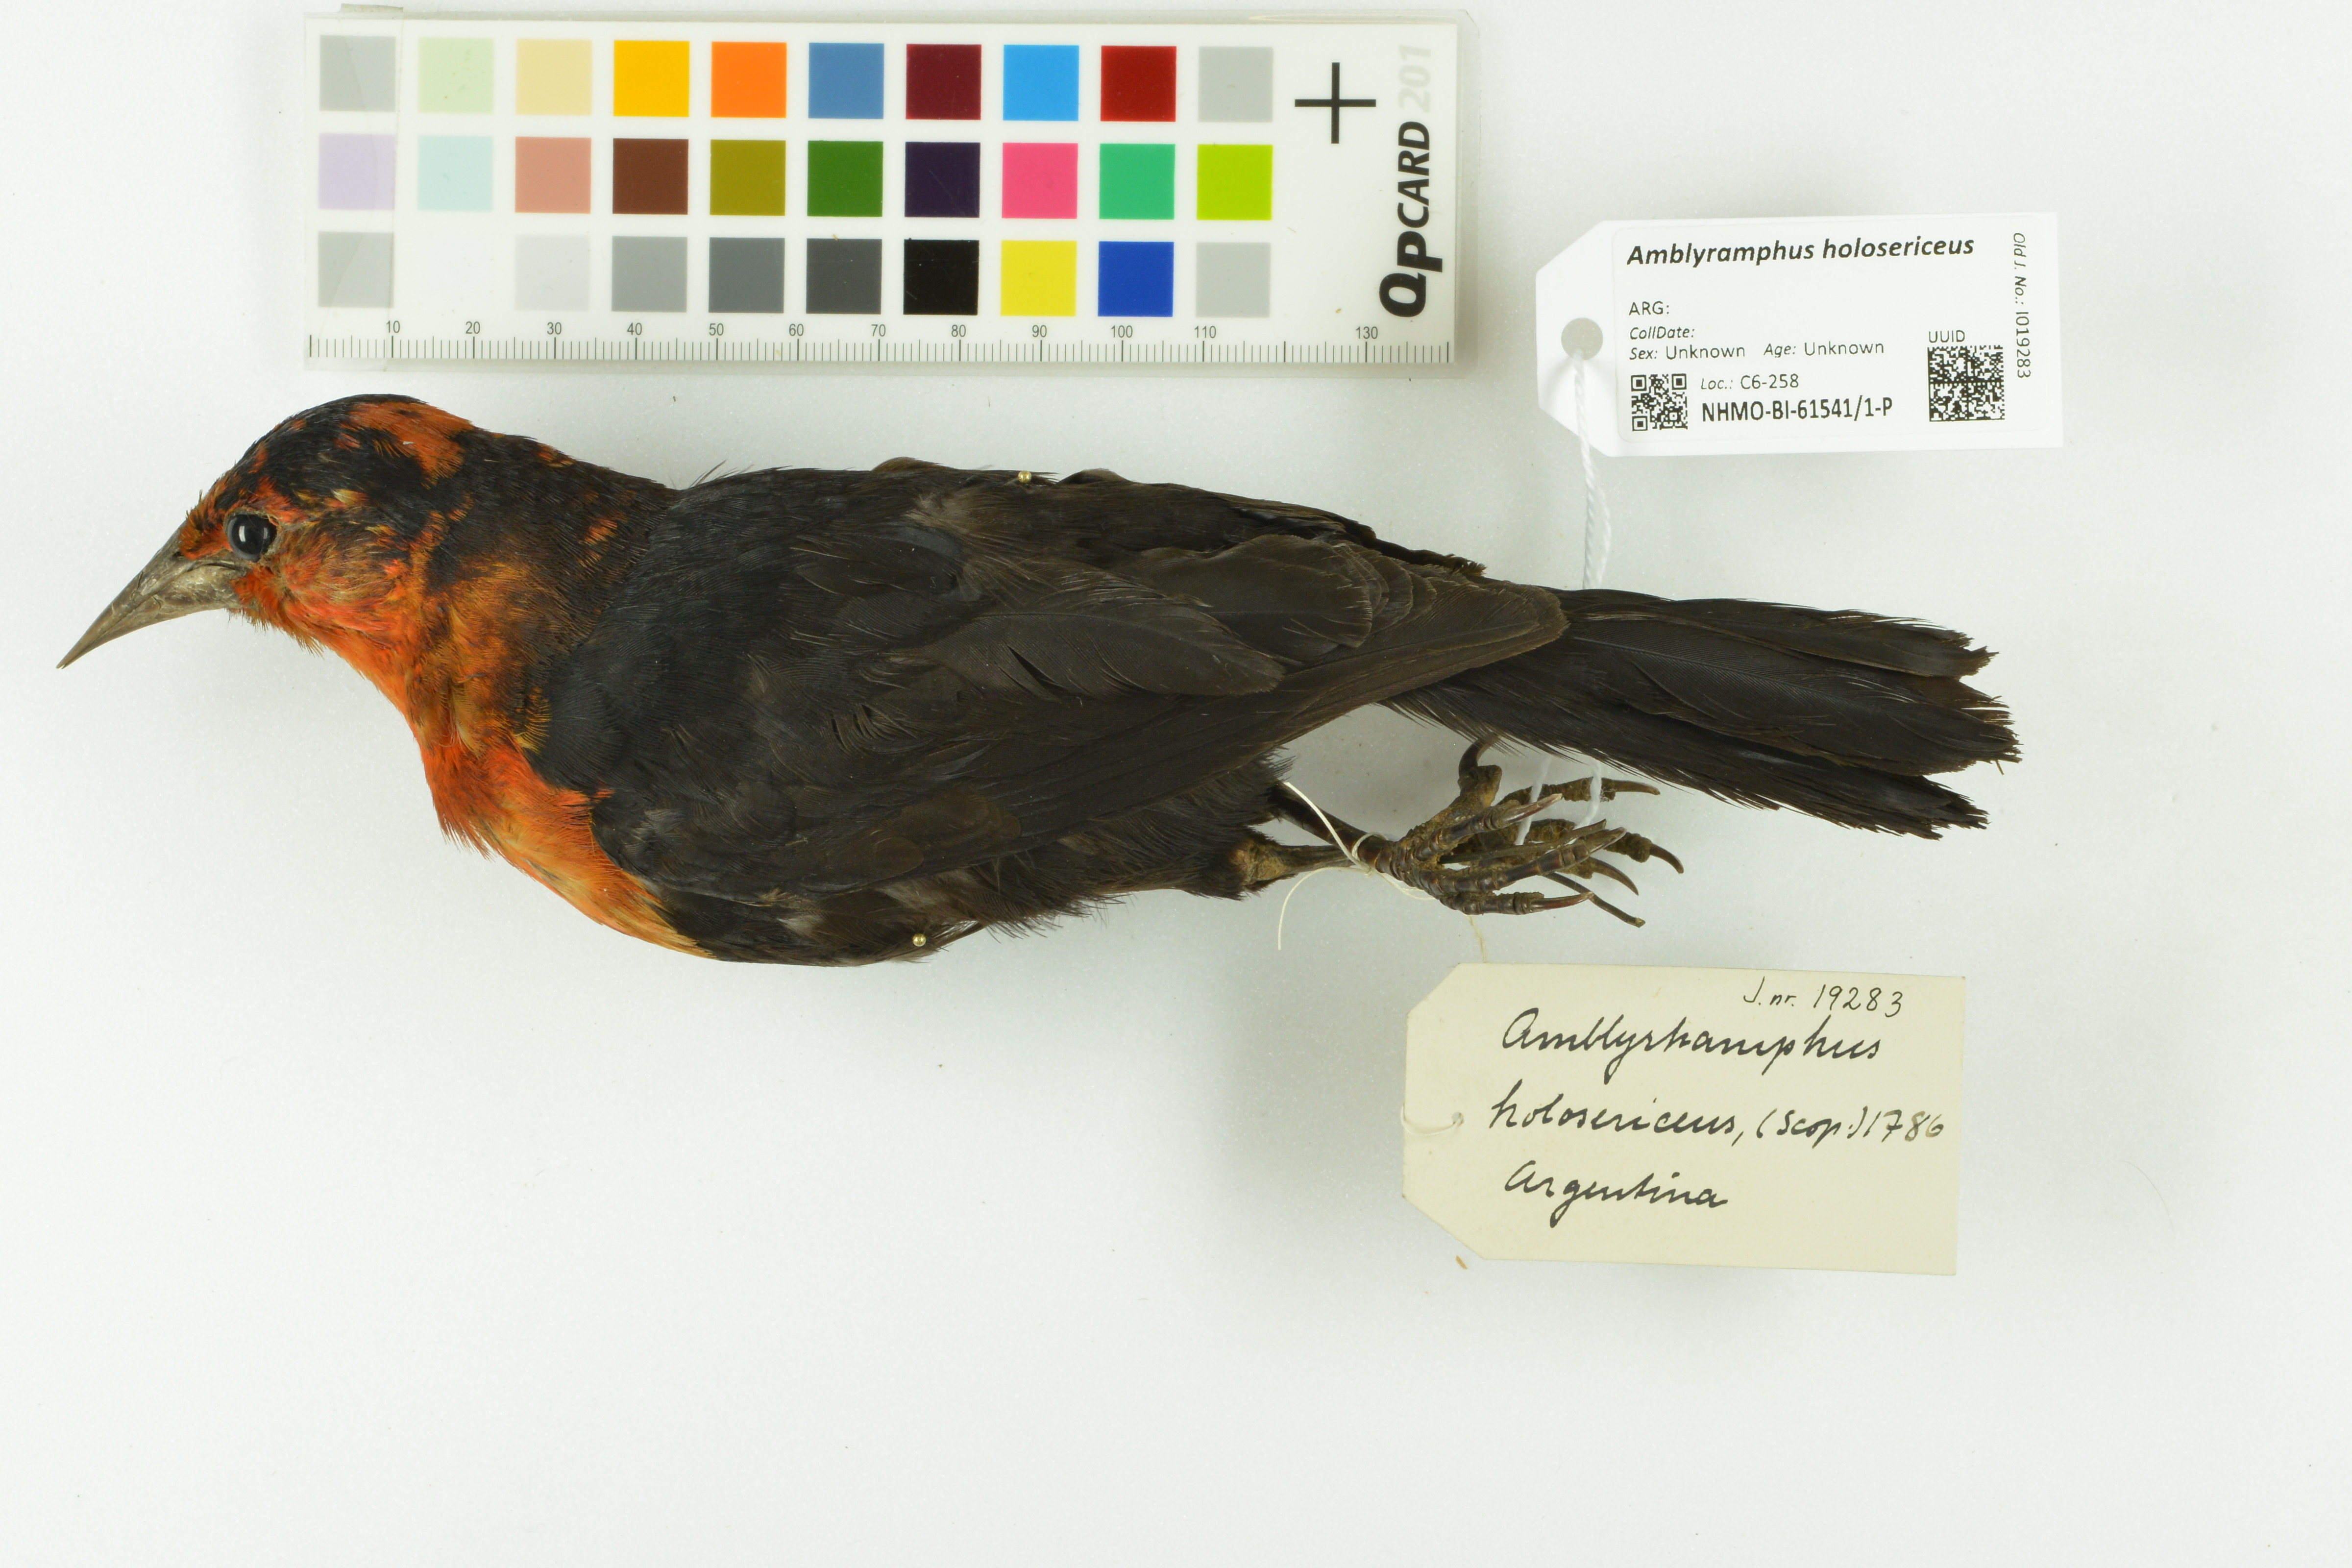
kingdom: Animalia
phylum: Chordata
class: Aves
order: Passeriformes
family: Icteridae
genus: Amblyramphus
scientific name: Amblyramphus holosericeus
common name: Scarlet-headed blackbird
